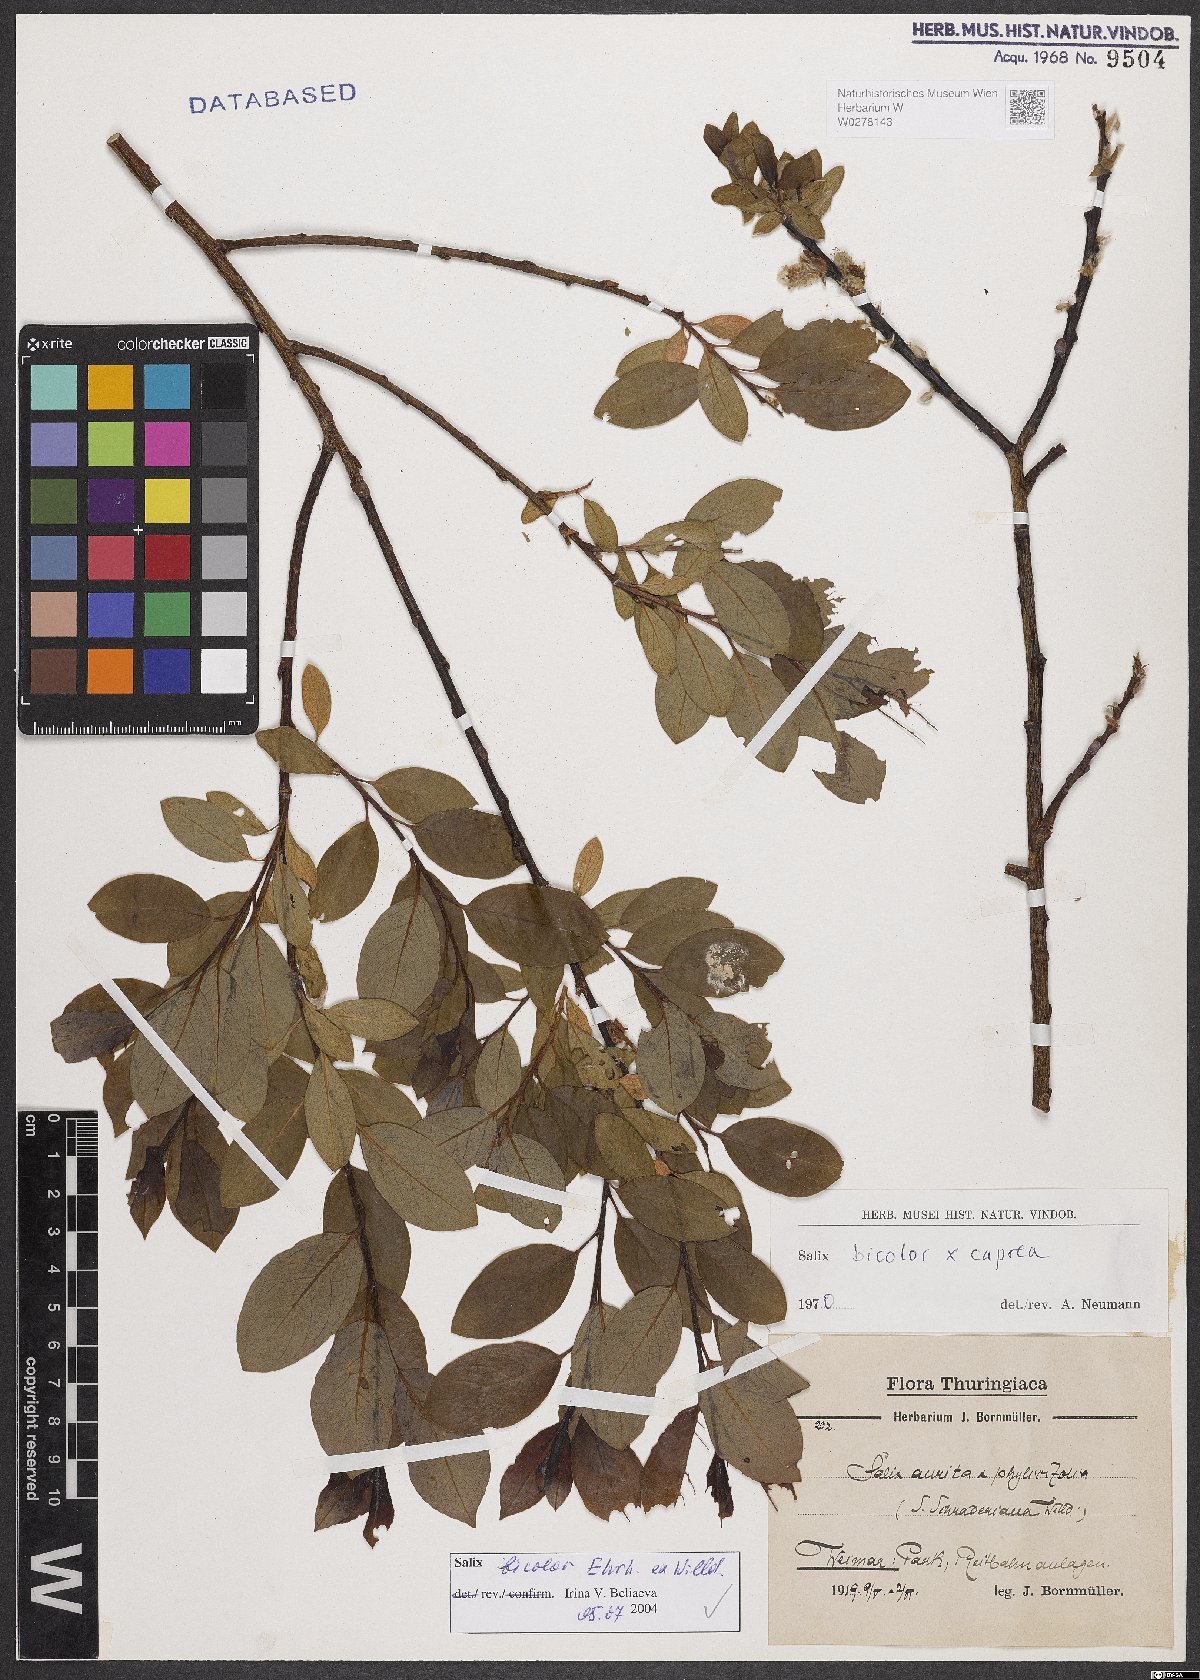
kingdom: Plantae
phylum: Tracheophyta
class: Magnoliopsida
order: Malpighiales
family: Salicaceae
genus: Salix
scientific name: Salix bicolor
